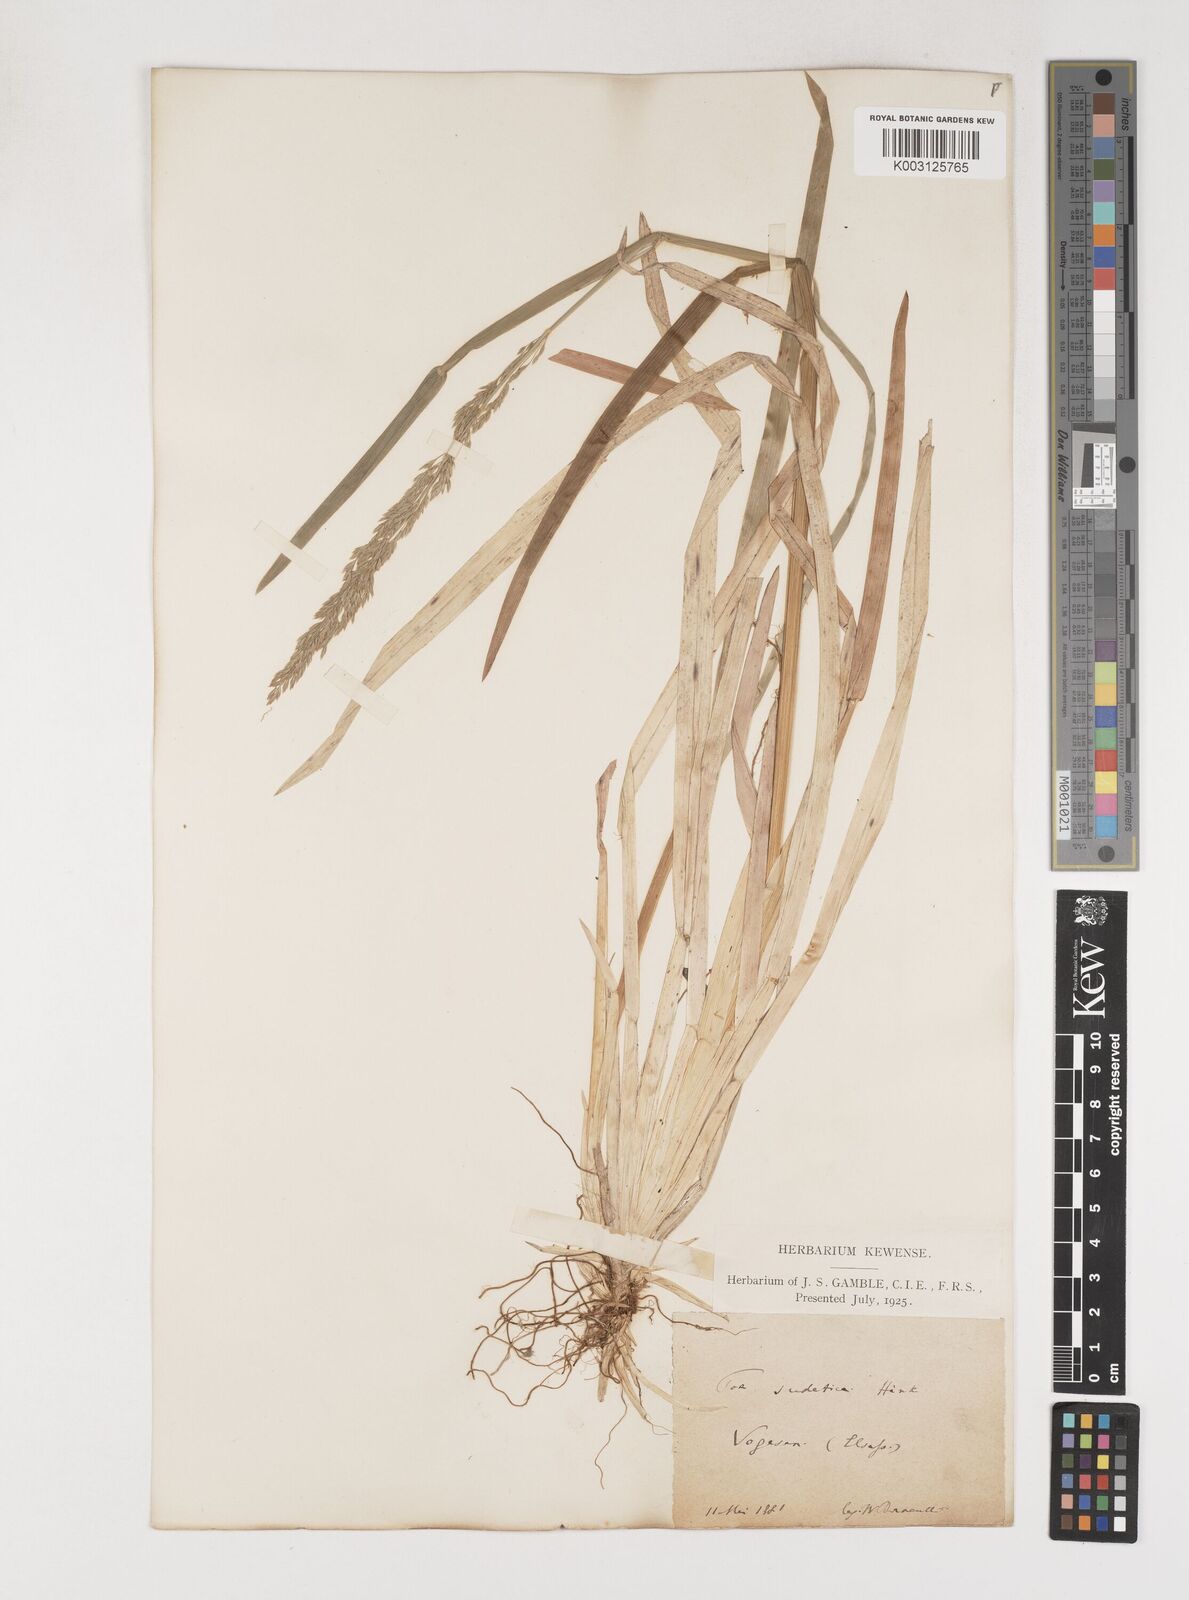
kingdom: Plantae
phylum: Tracheophyta
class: Liliopsida
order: Poales
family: Poaceae
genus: Poa
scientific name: Poa chaixii
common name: Broad-leaved meadow-grass
